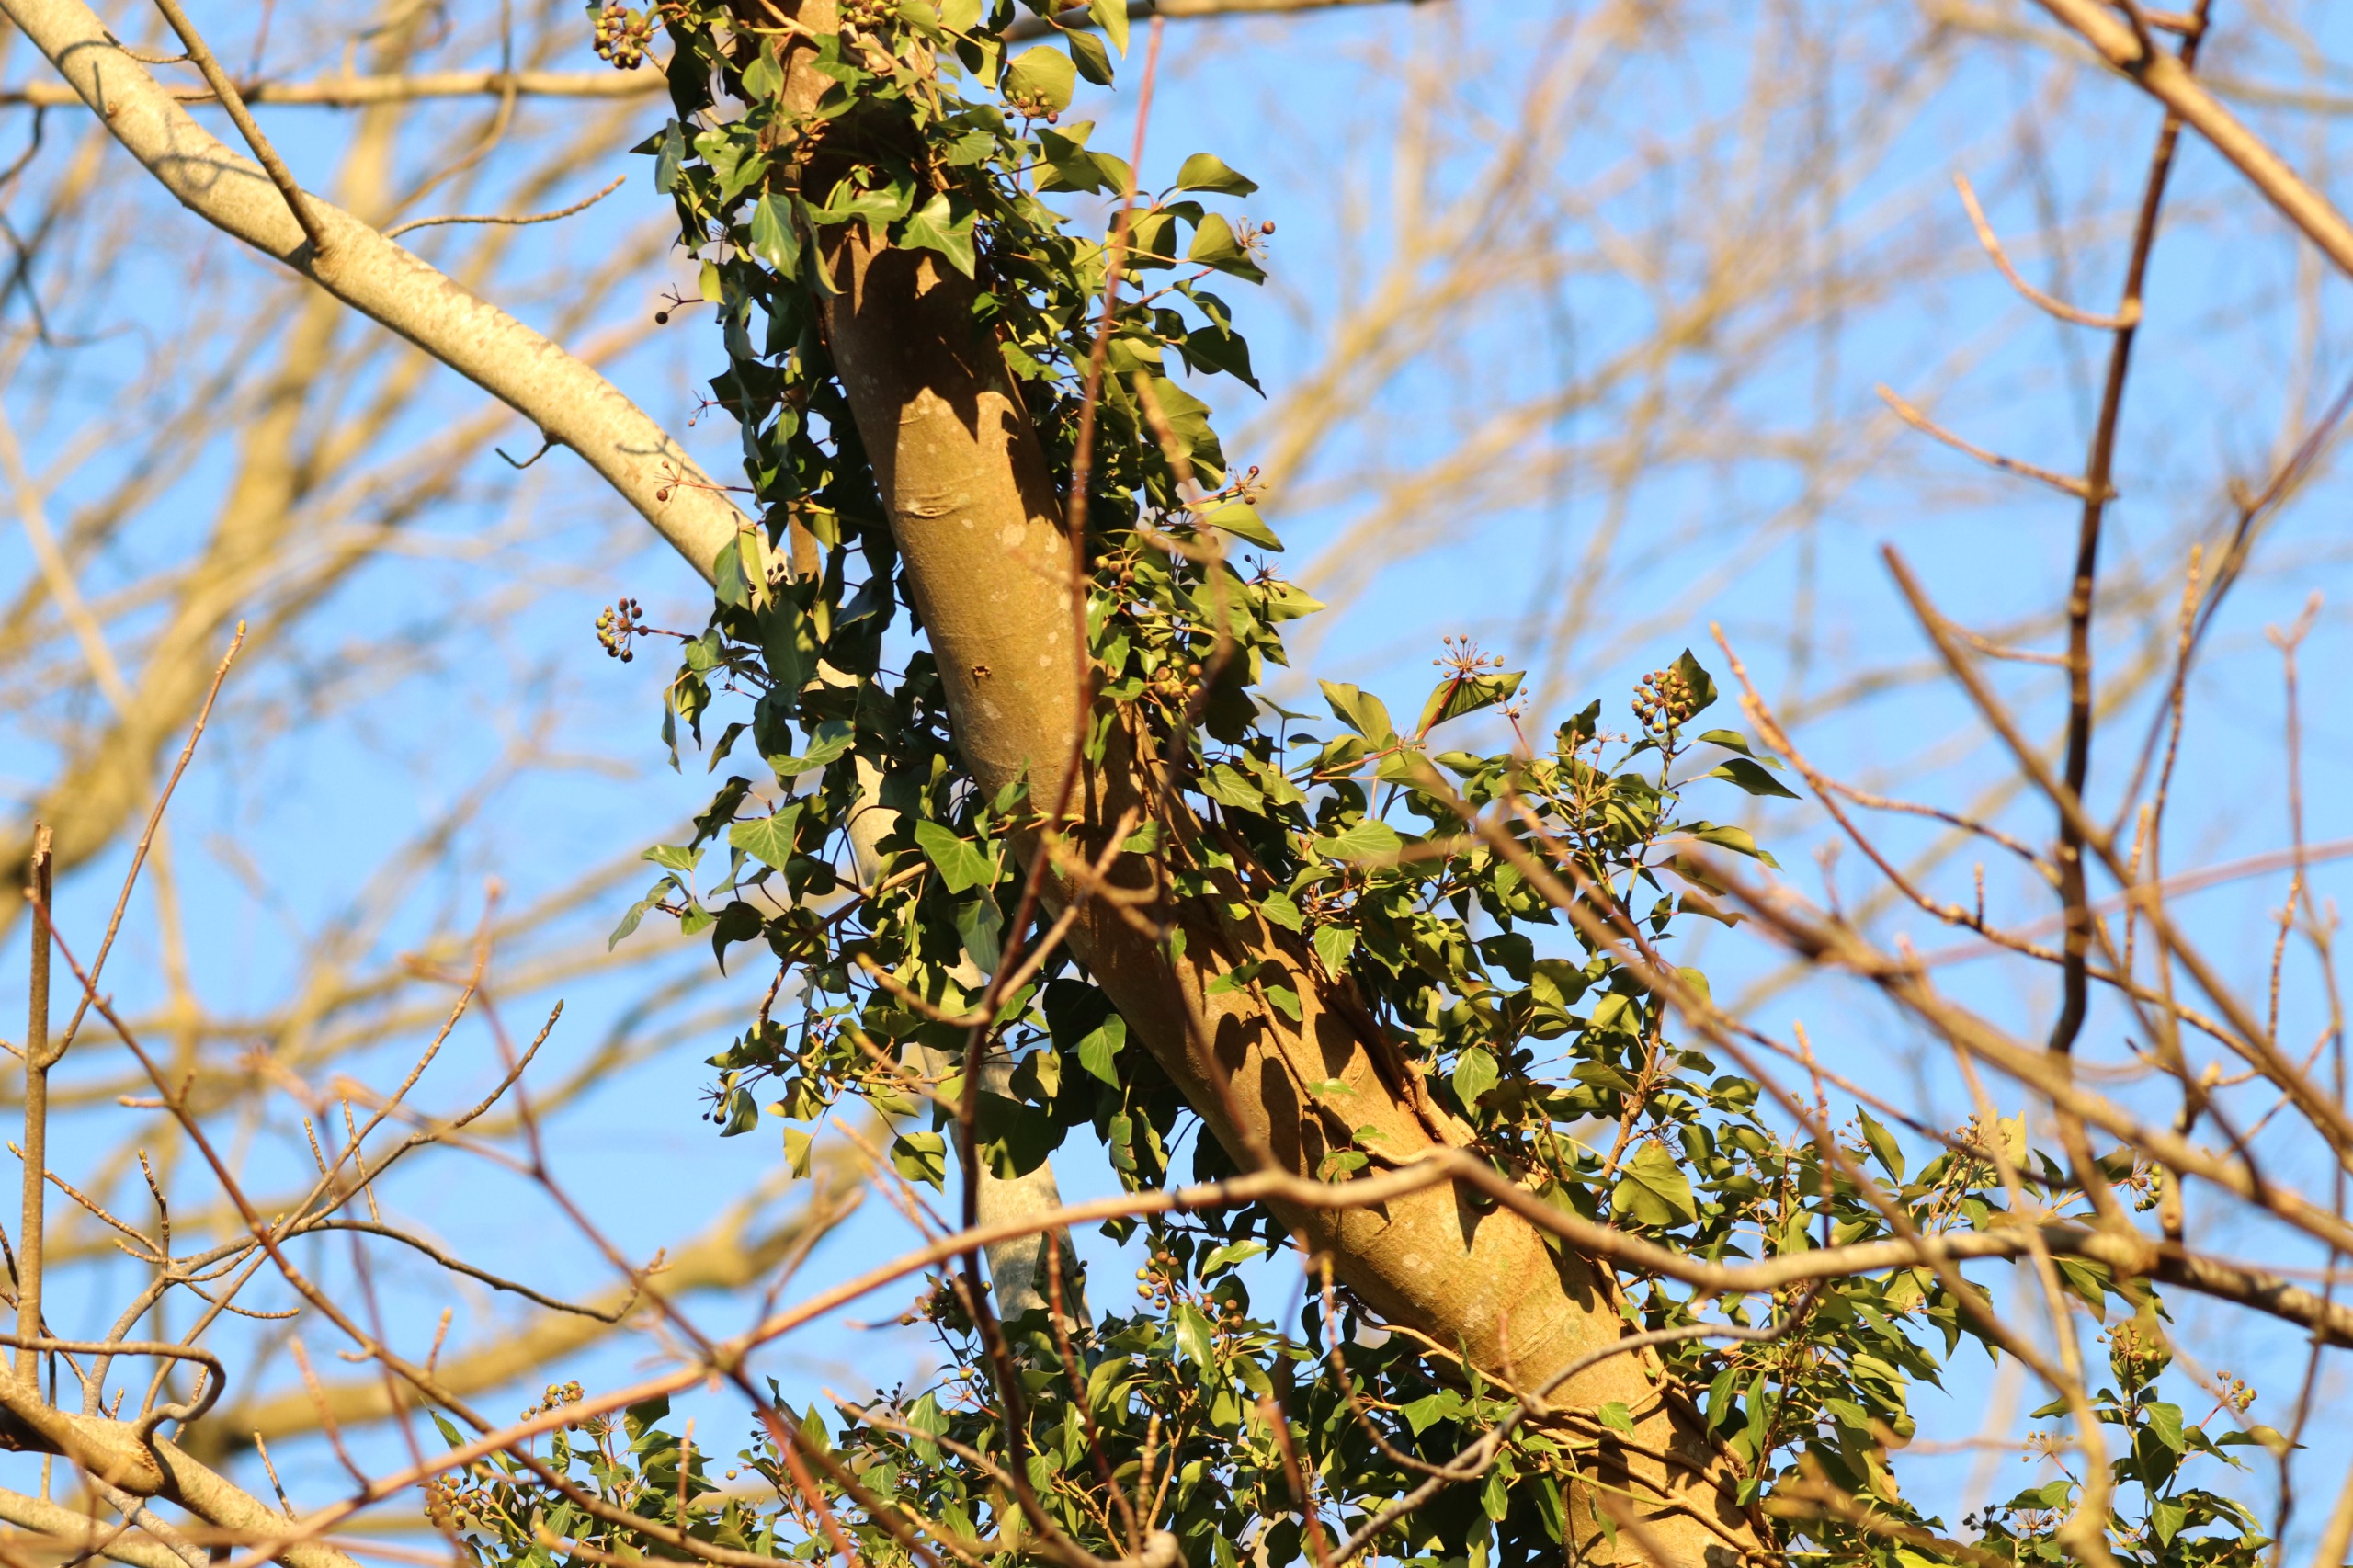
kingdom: Plantae
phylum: Tracheophyta
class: Magnoliopsida
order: Apiales
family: Araliaceae
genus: Hedera
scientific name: Hedera helix
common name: Vedbend
